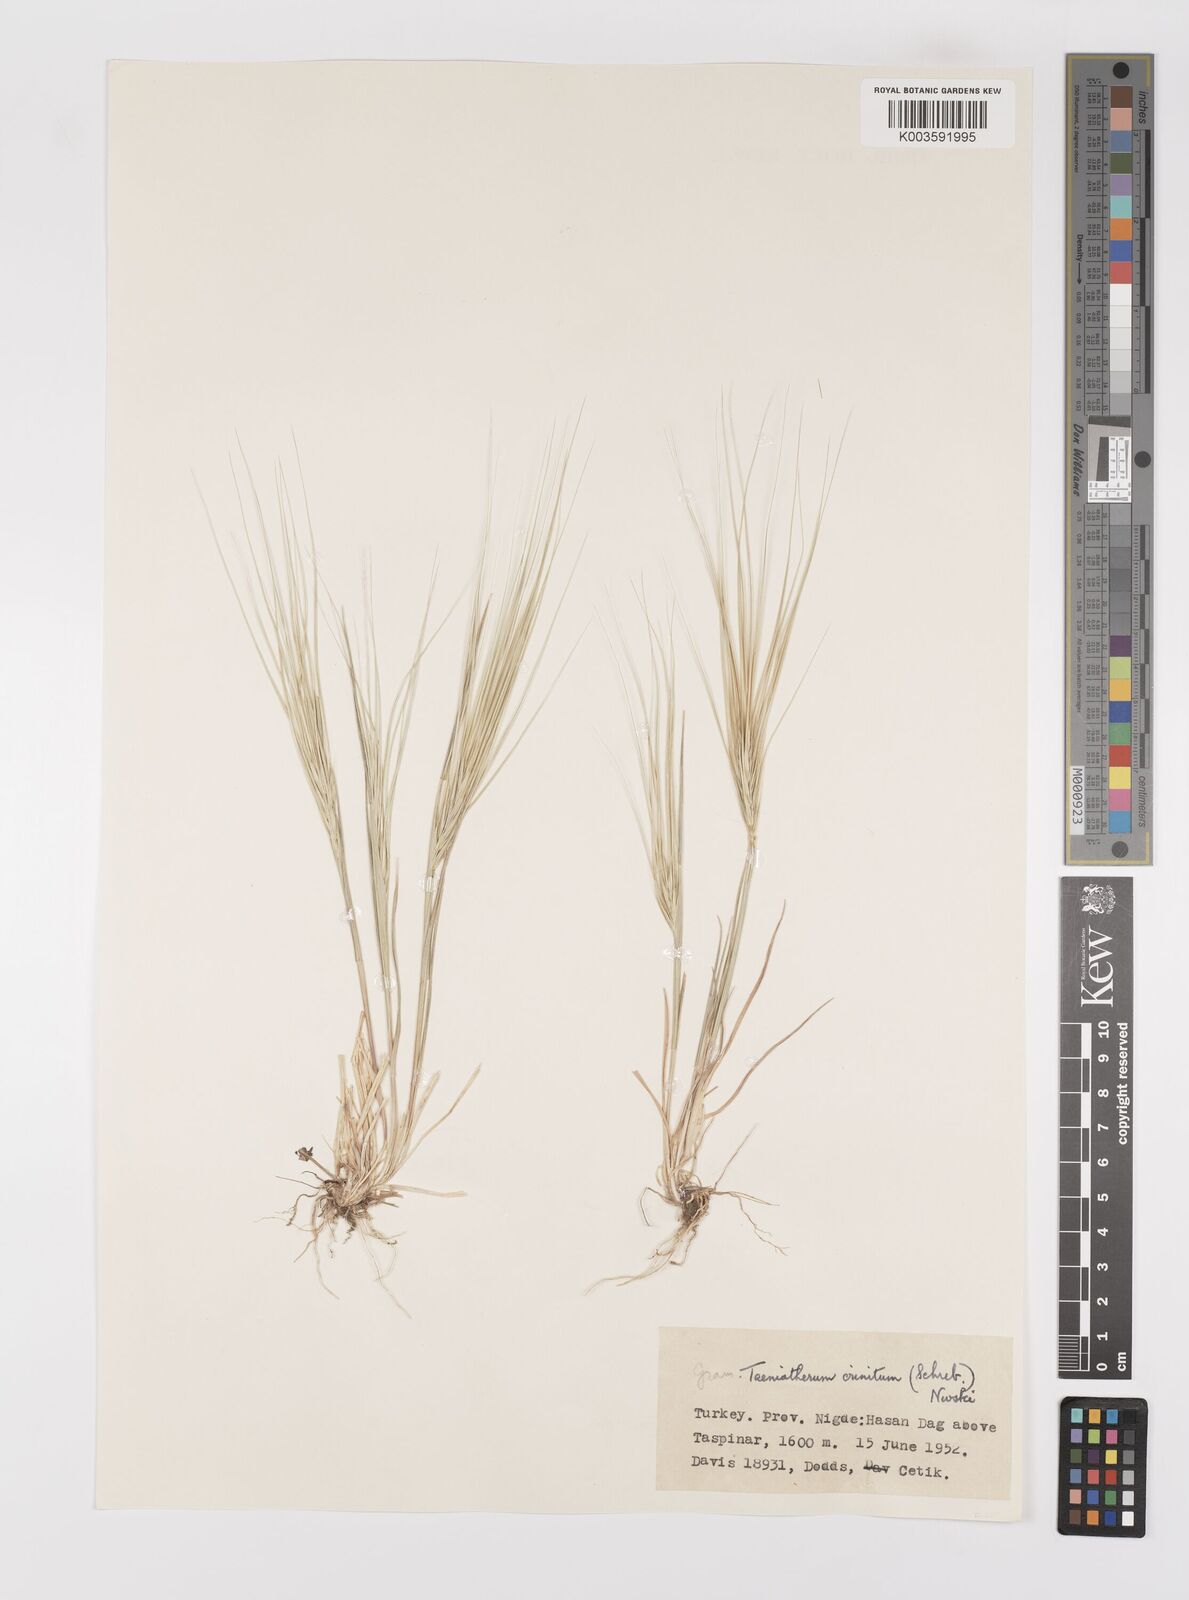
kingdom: Plantae
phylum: Tracheophyta
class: Liliopsida
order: Poales
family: Poaceae
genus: Taeniatherum
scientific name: Taeniatherum caput-medusae
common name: Medusahead
